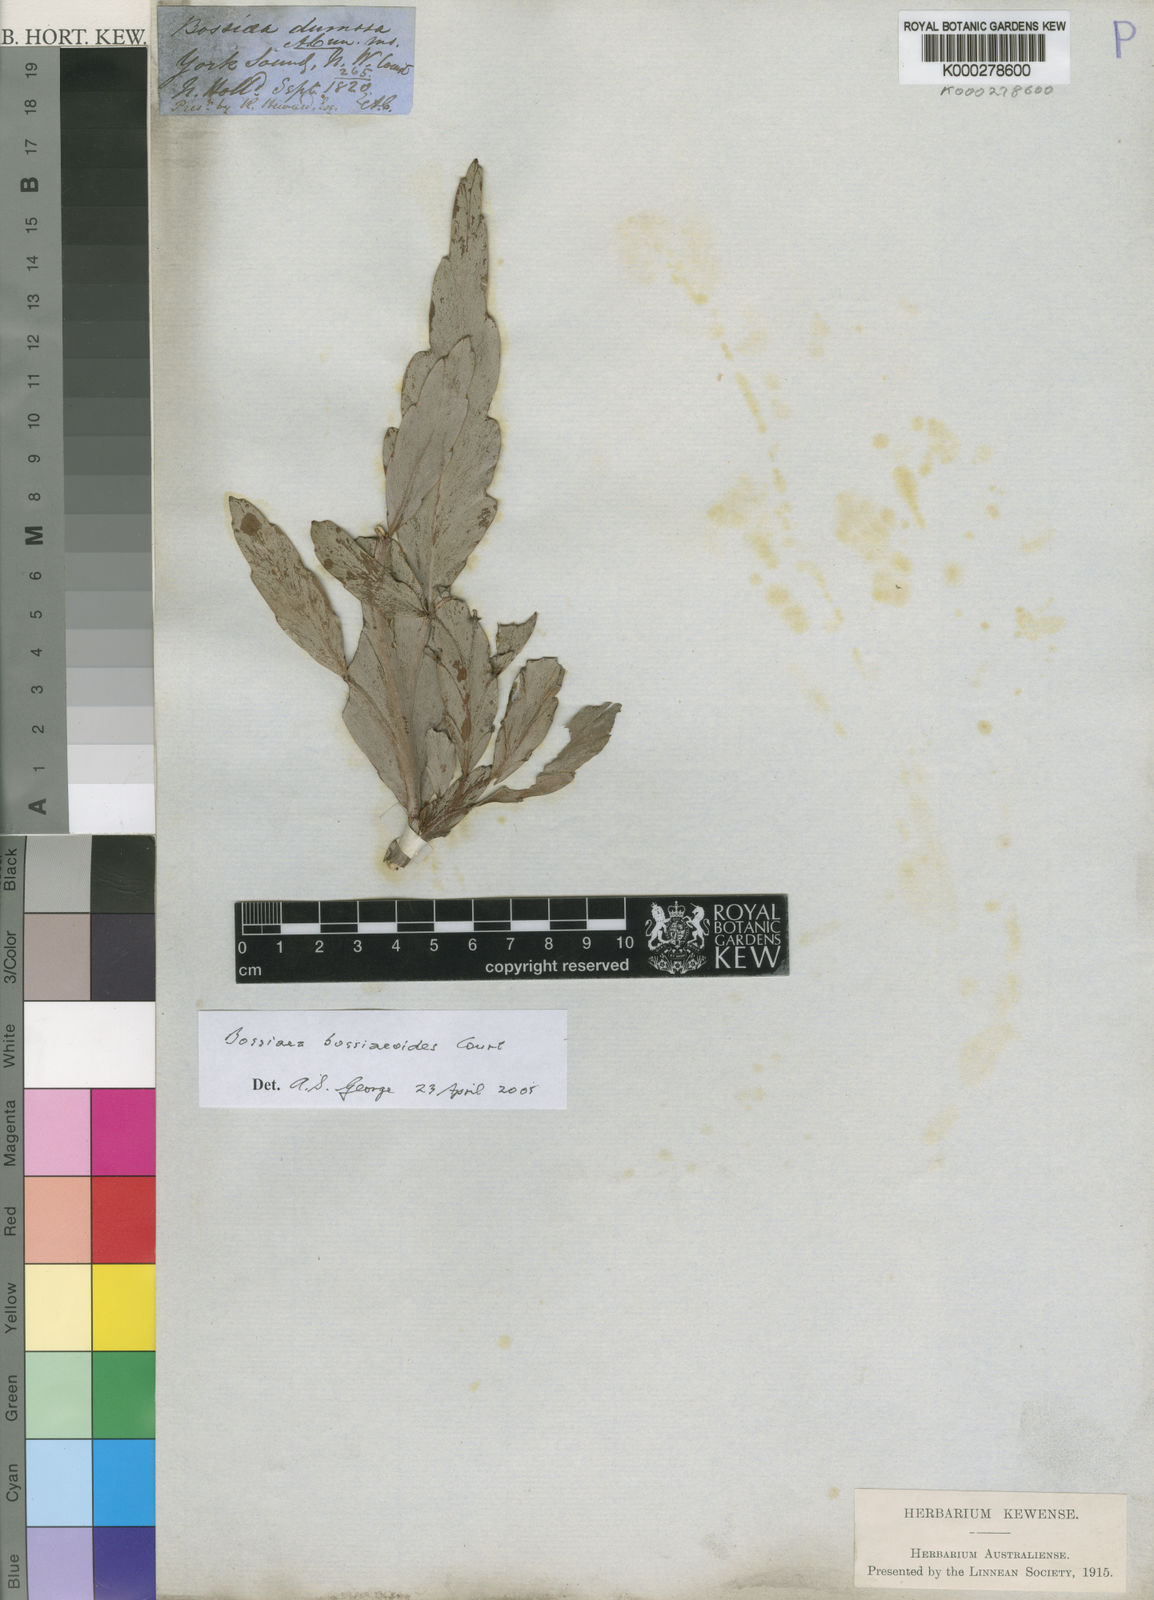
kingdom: Plantae
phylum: Tracheophyta
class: Magnoliopsida
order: Fabales
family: Fabaceae
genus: Bossiaea
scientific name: Bossiaea bossiaeoides
